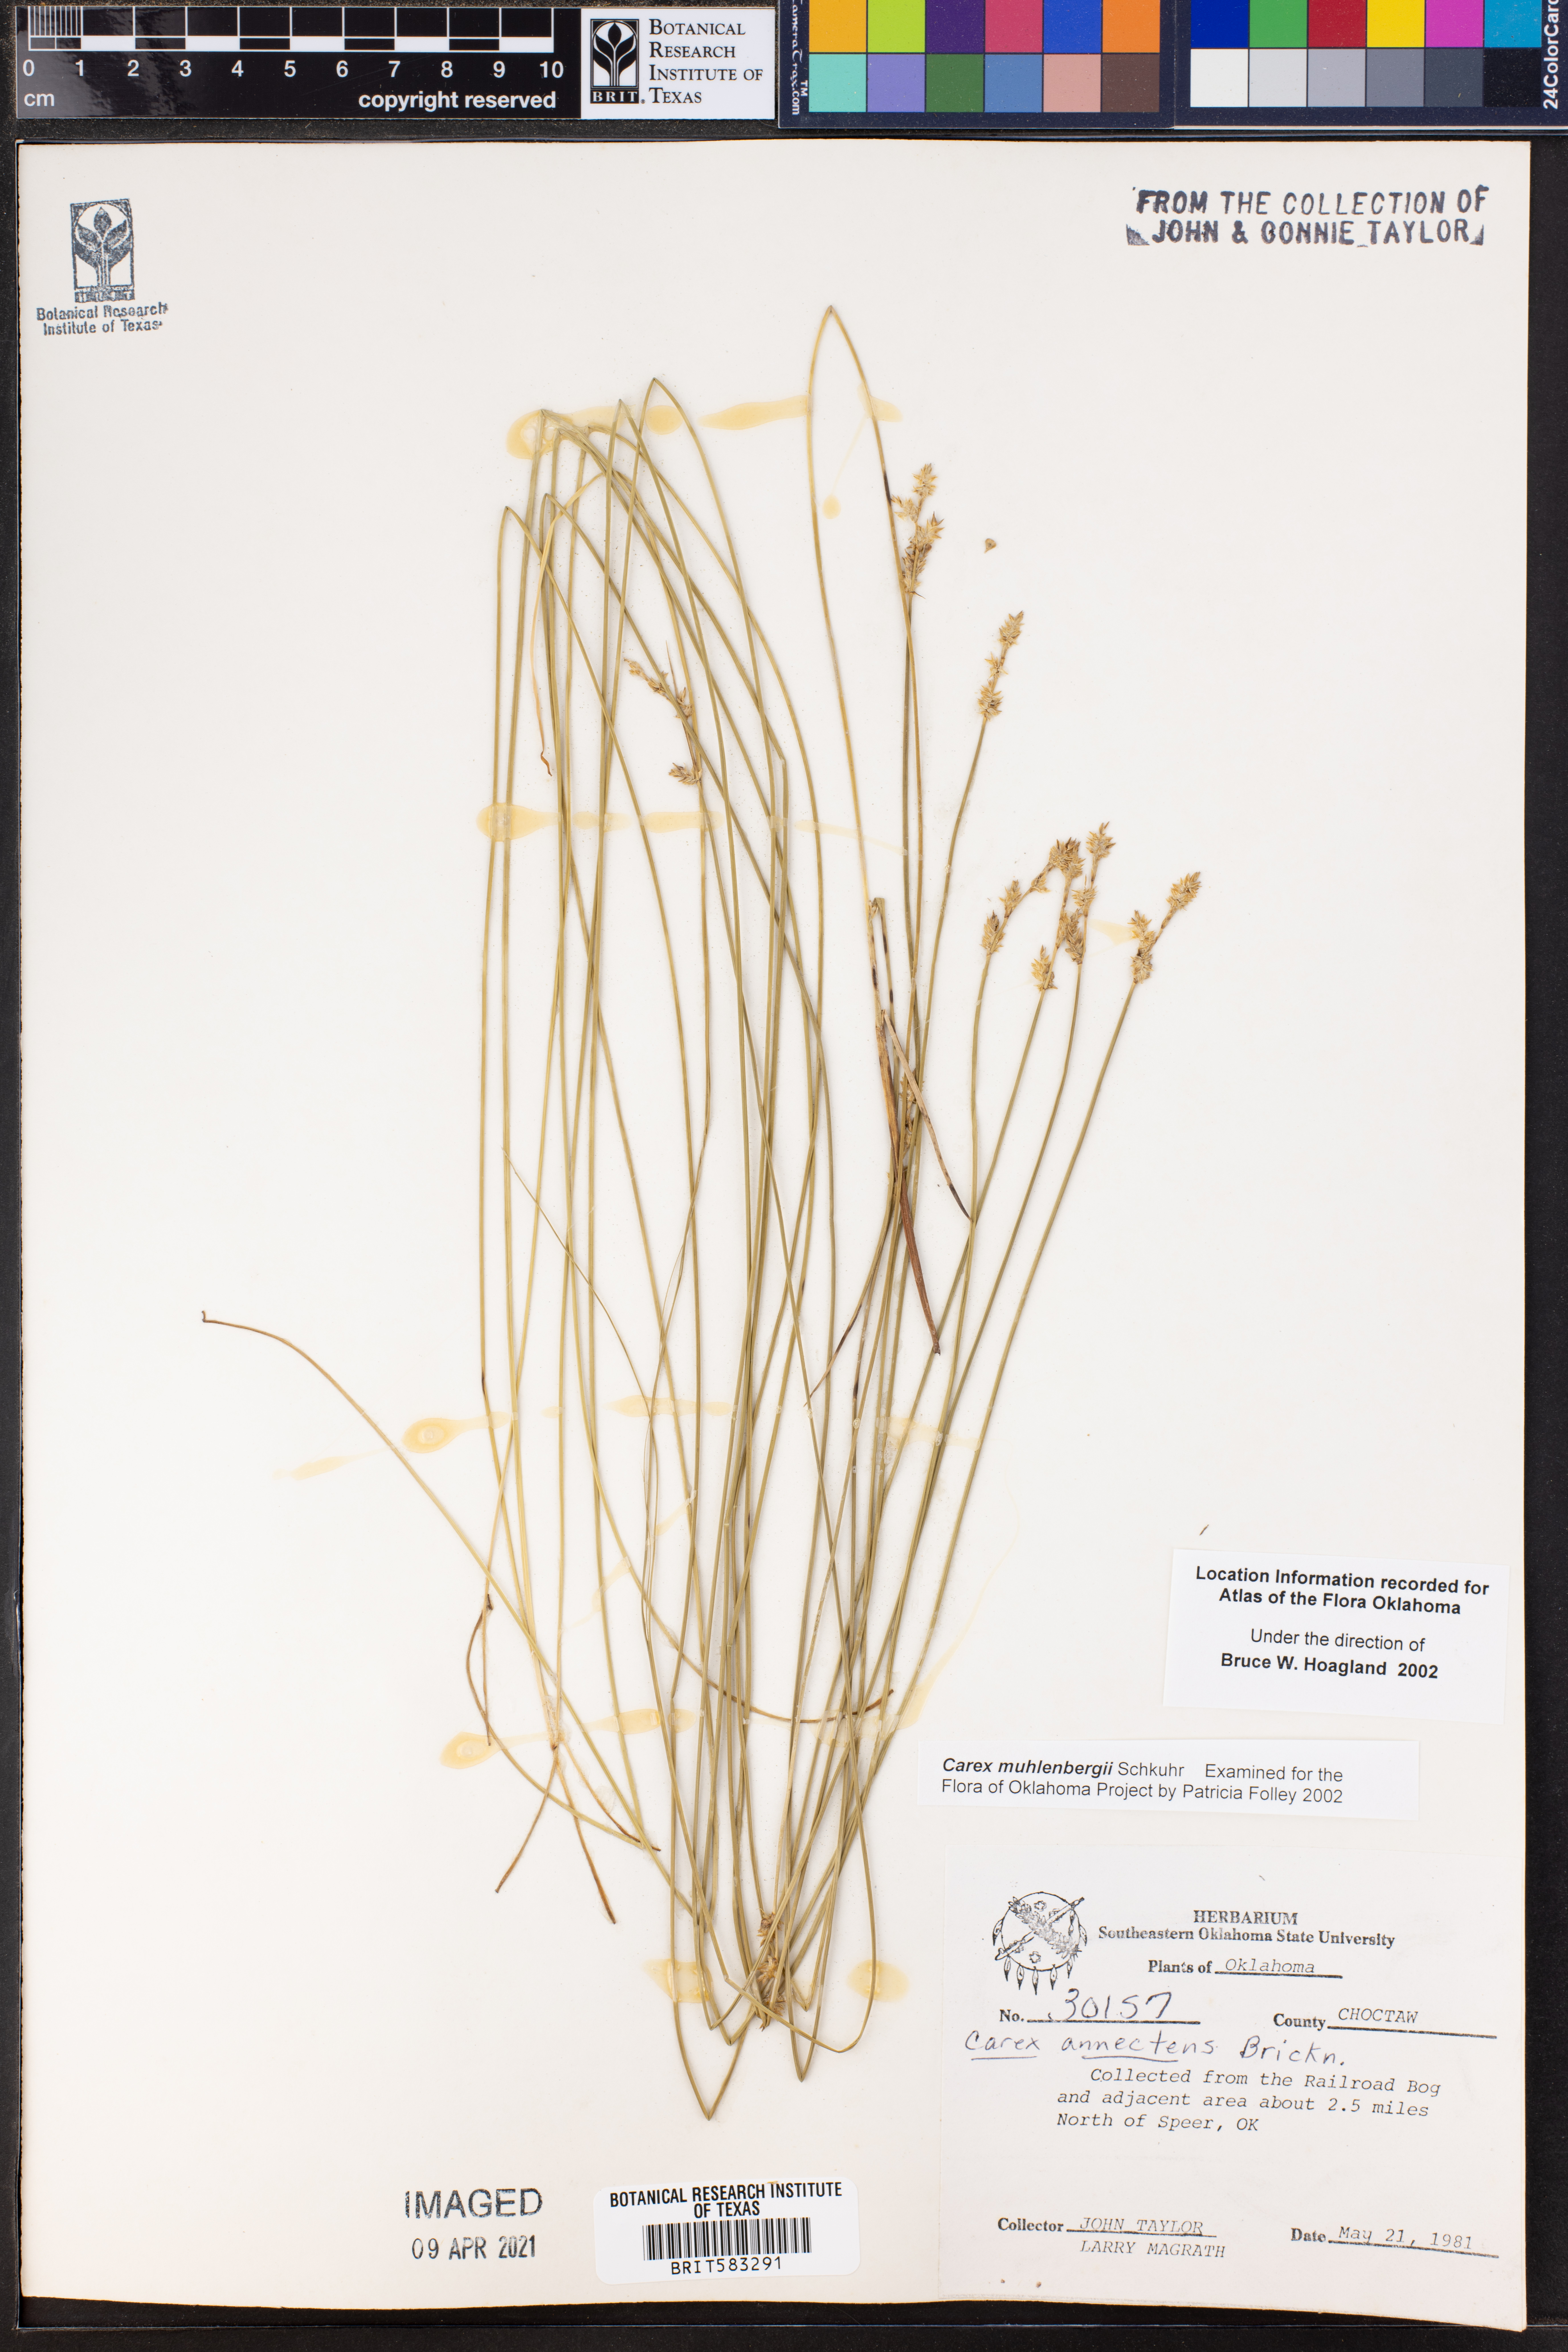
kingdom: Plantae
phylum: Tracheophyta
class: Liliopsida
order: Poales
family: Cyperaceae
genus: Carex
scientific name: Carex vulpinoidea
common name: American fox-sedge
